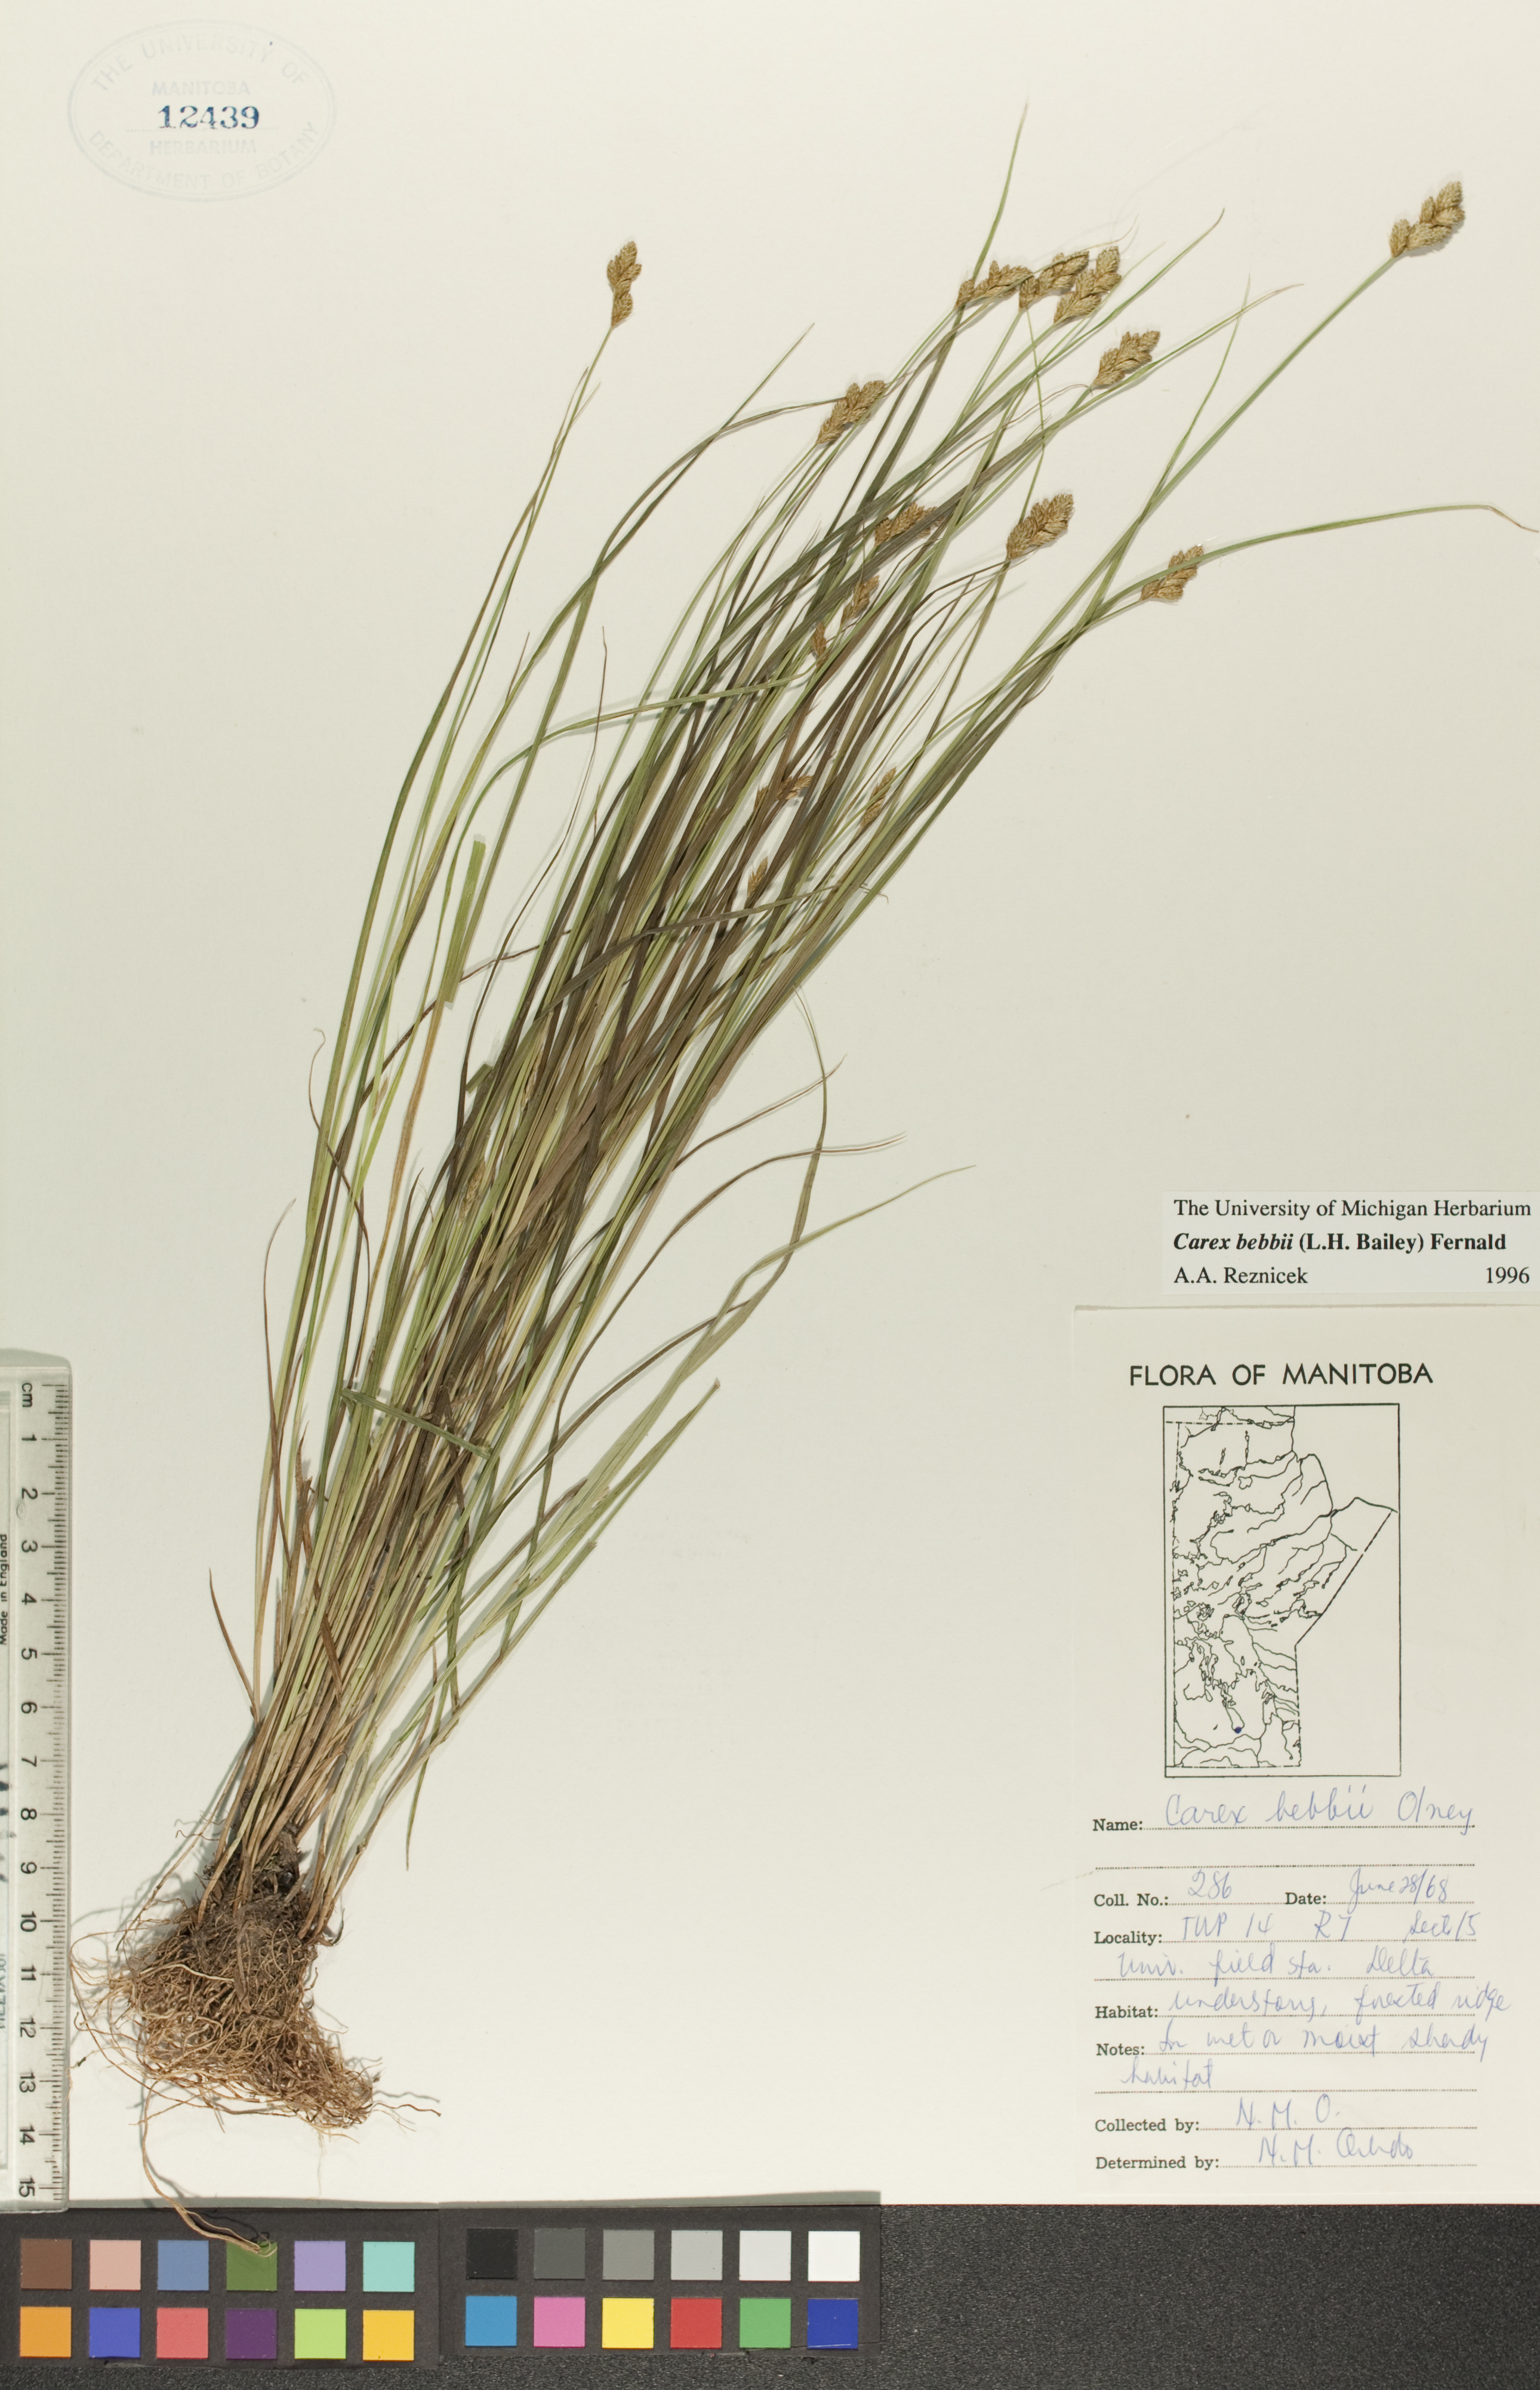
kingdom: Plantae
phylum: Tracheophyta
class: Liliopsida
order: Poales
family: Cyperaceae
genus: Carex
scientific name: Carex bebbii
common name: Bebb's sedge
